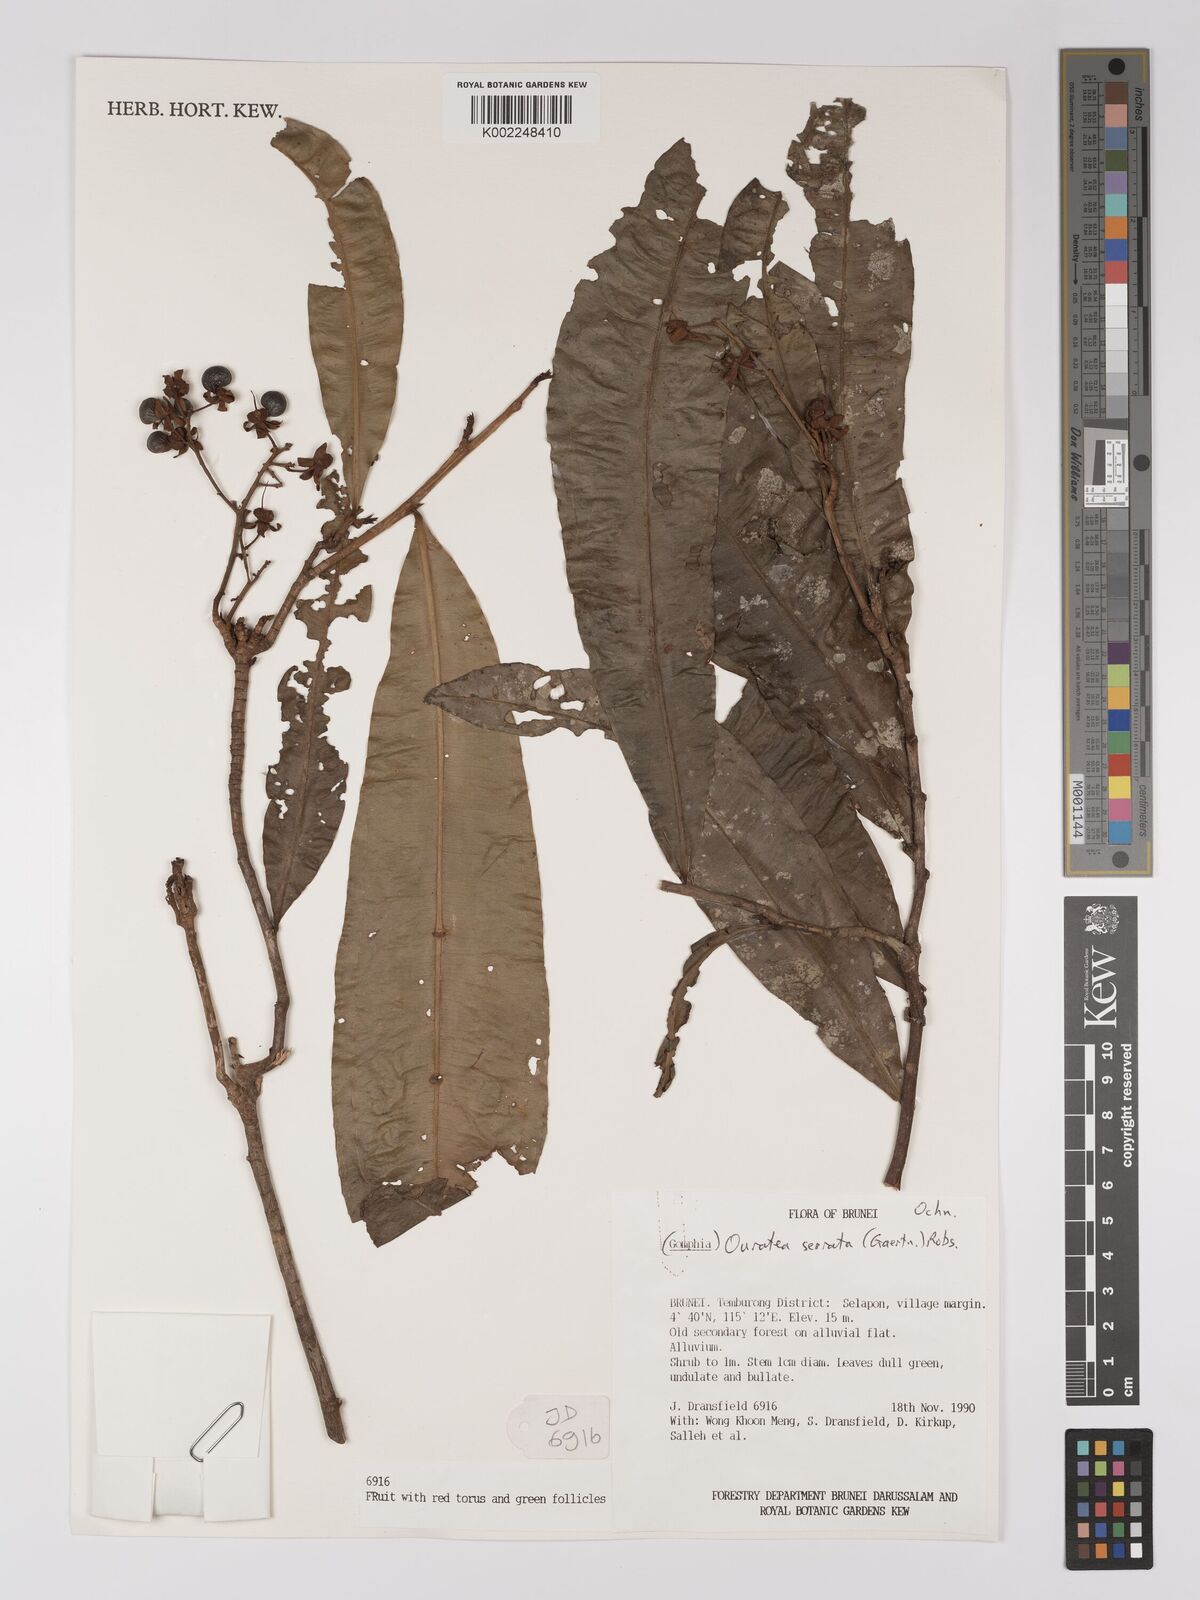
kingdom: Plantae
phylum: Tracheophyta
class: Magnoliopsida
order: Malpighiales
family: Ochnaceae
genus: Gomphia
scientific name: Gomphia serrata
